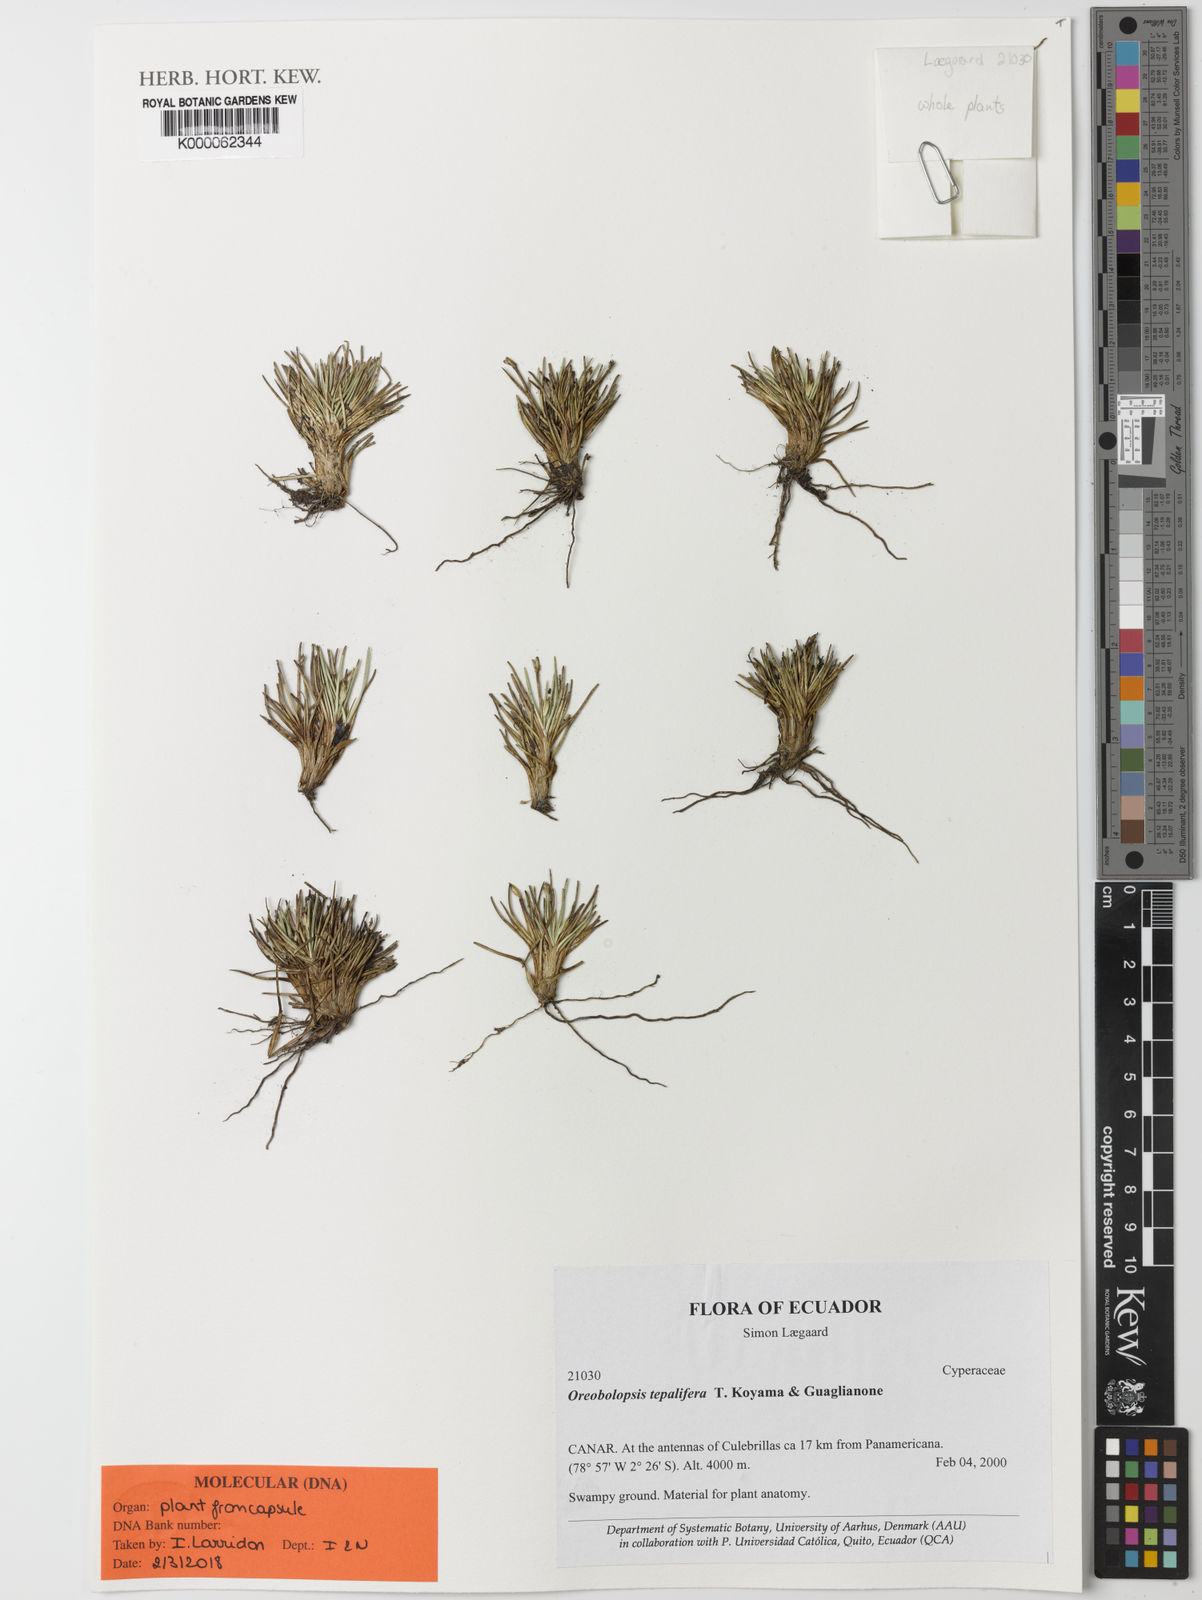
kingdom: Plantae
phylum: Tracheophyta
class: Liliopsida
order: Poales
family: Cyperaceae
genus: Trichophorum
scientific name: Trichophorum tepaliferum
